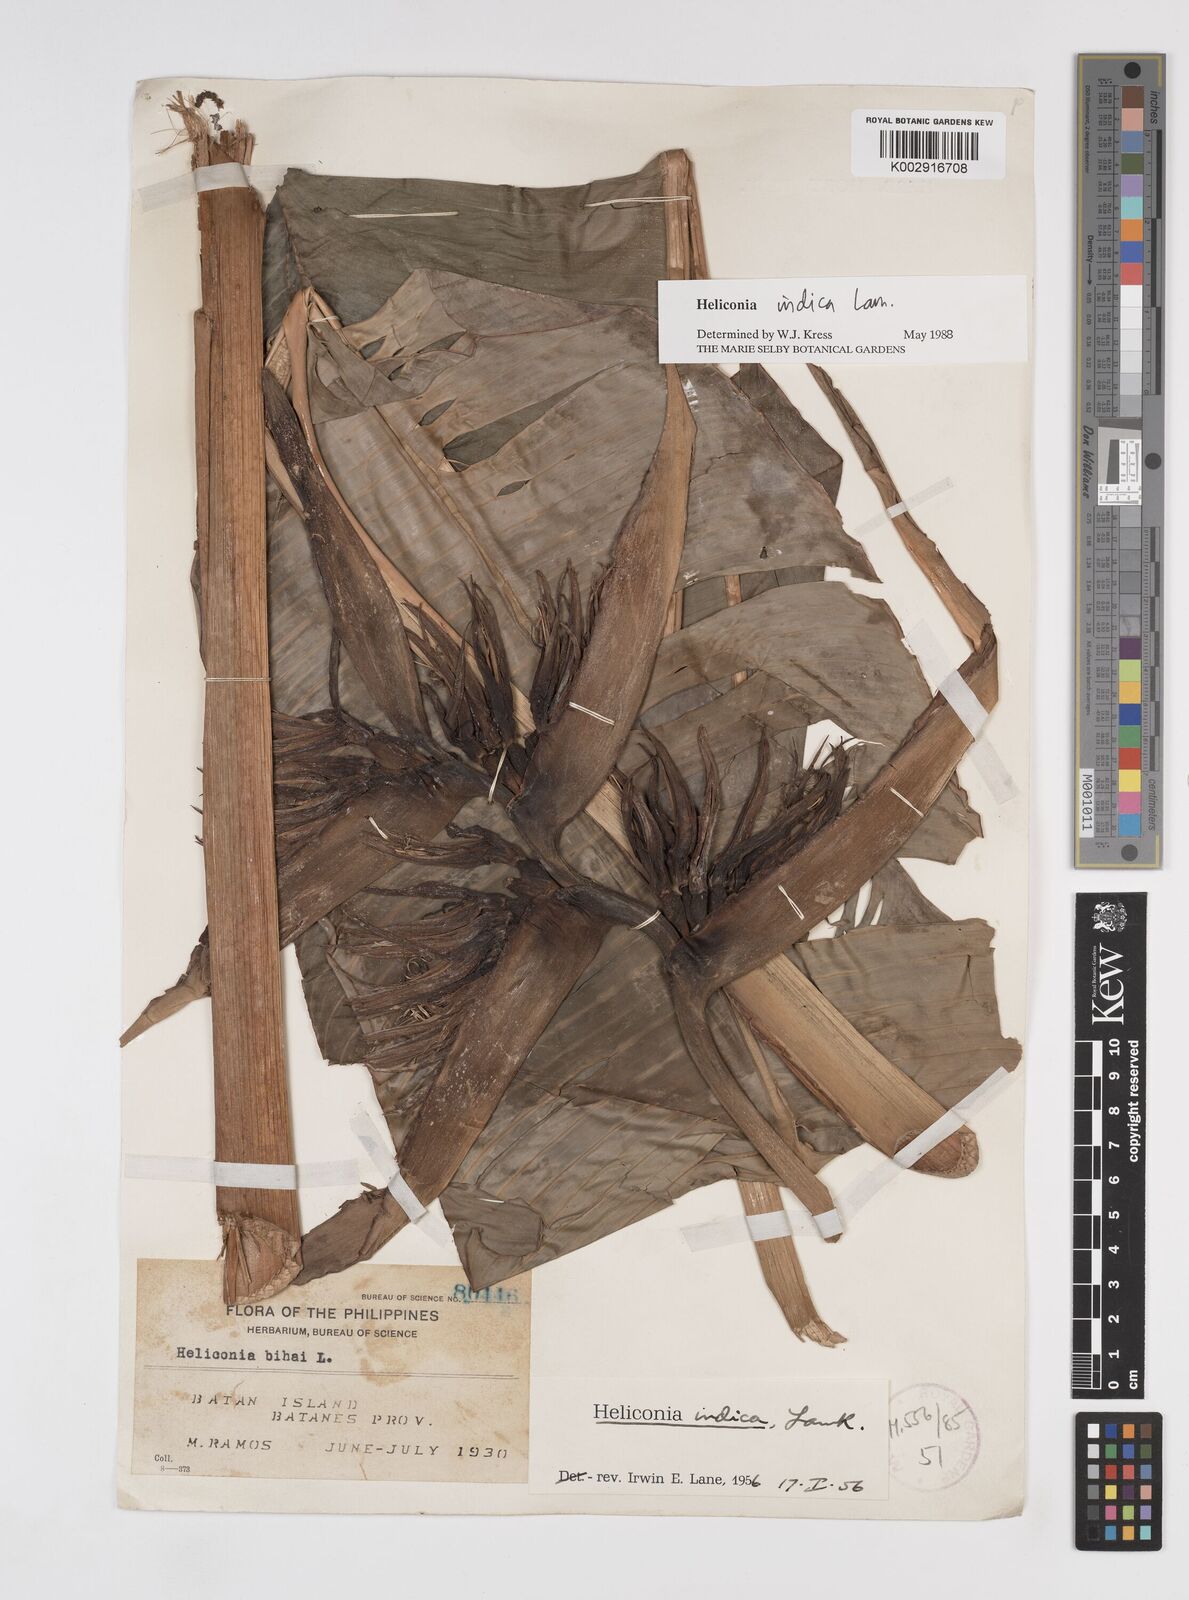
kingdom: Plantae
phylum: Tracheophyta
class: Liliopsida
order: Zingiberales
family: Heliconiaceae
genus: Heliconia
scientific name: Heliconia indica
